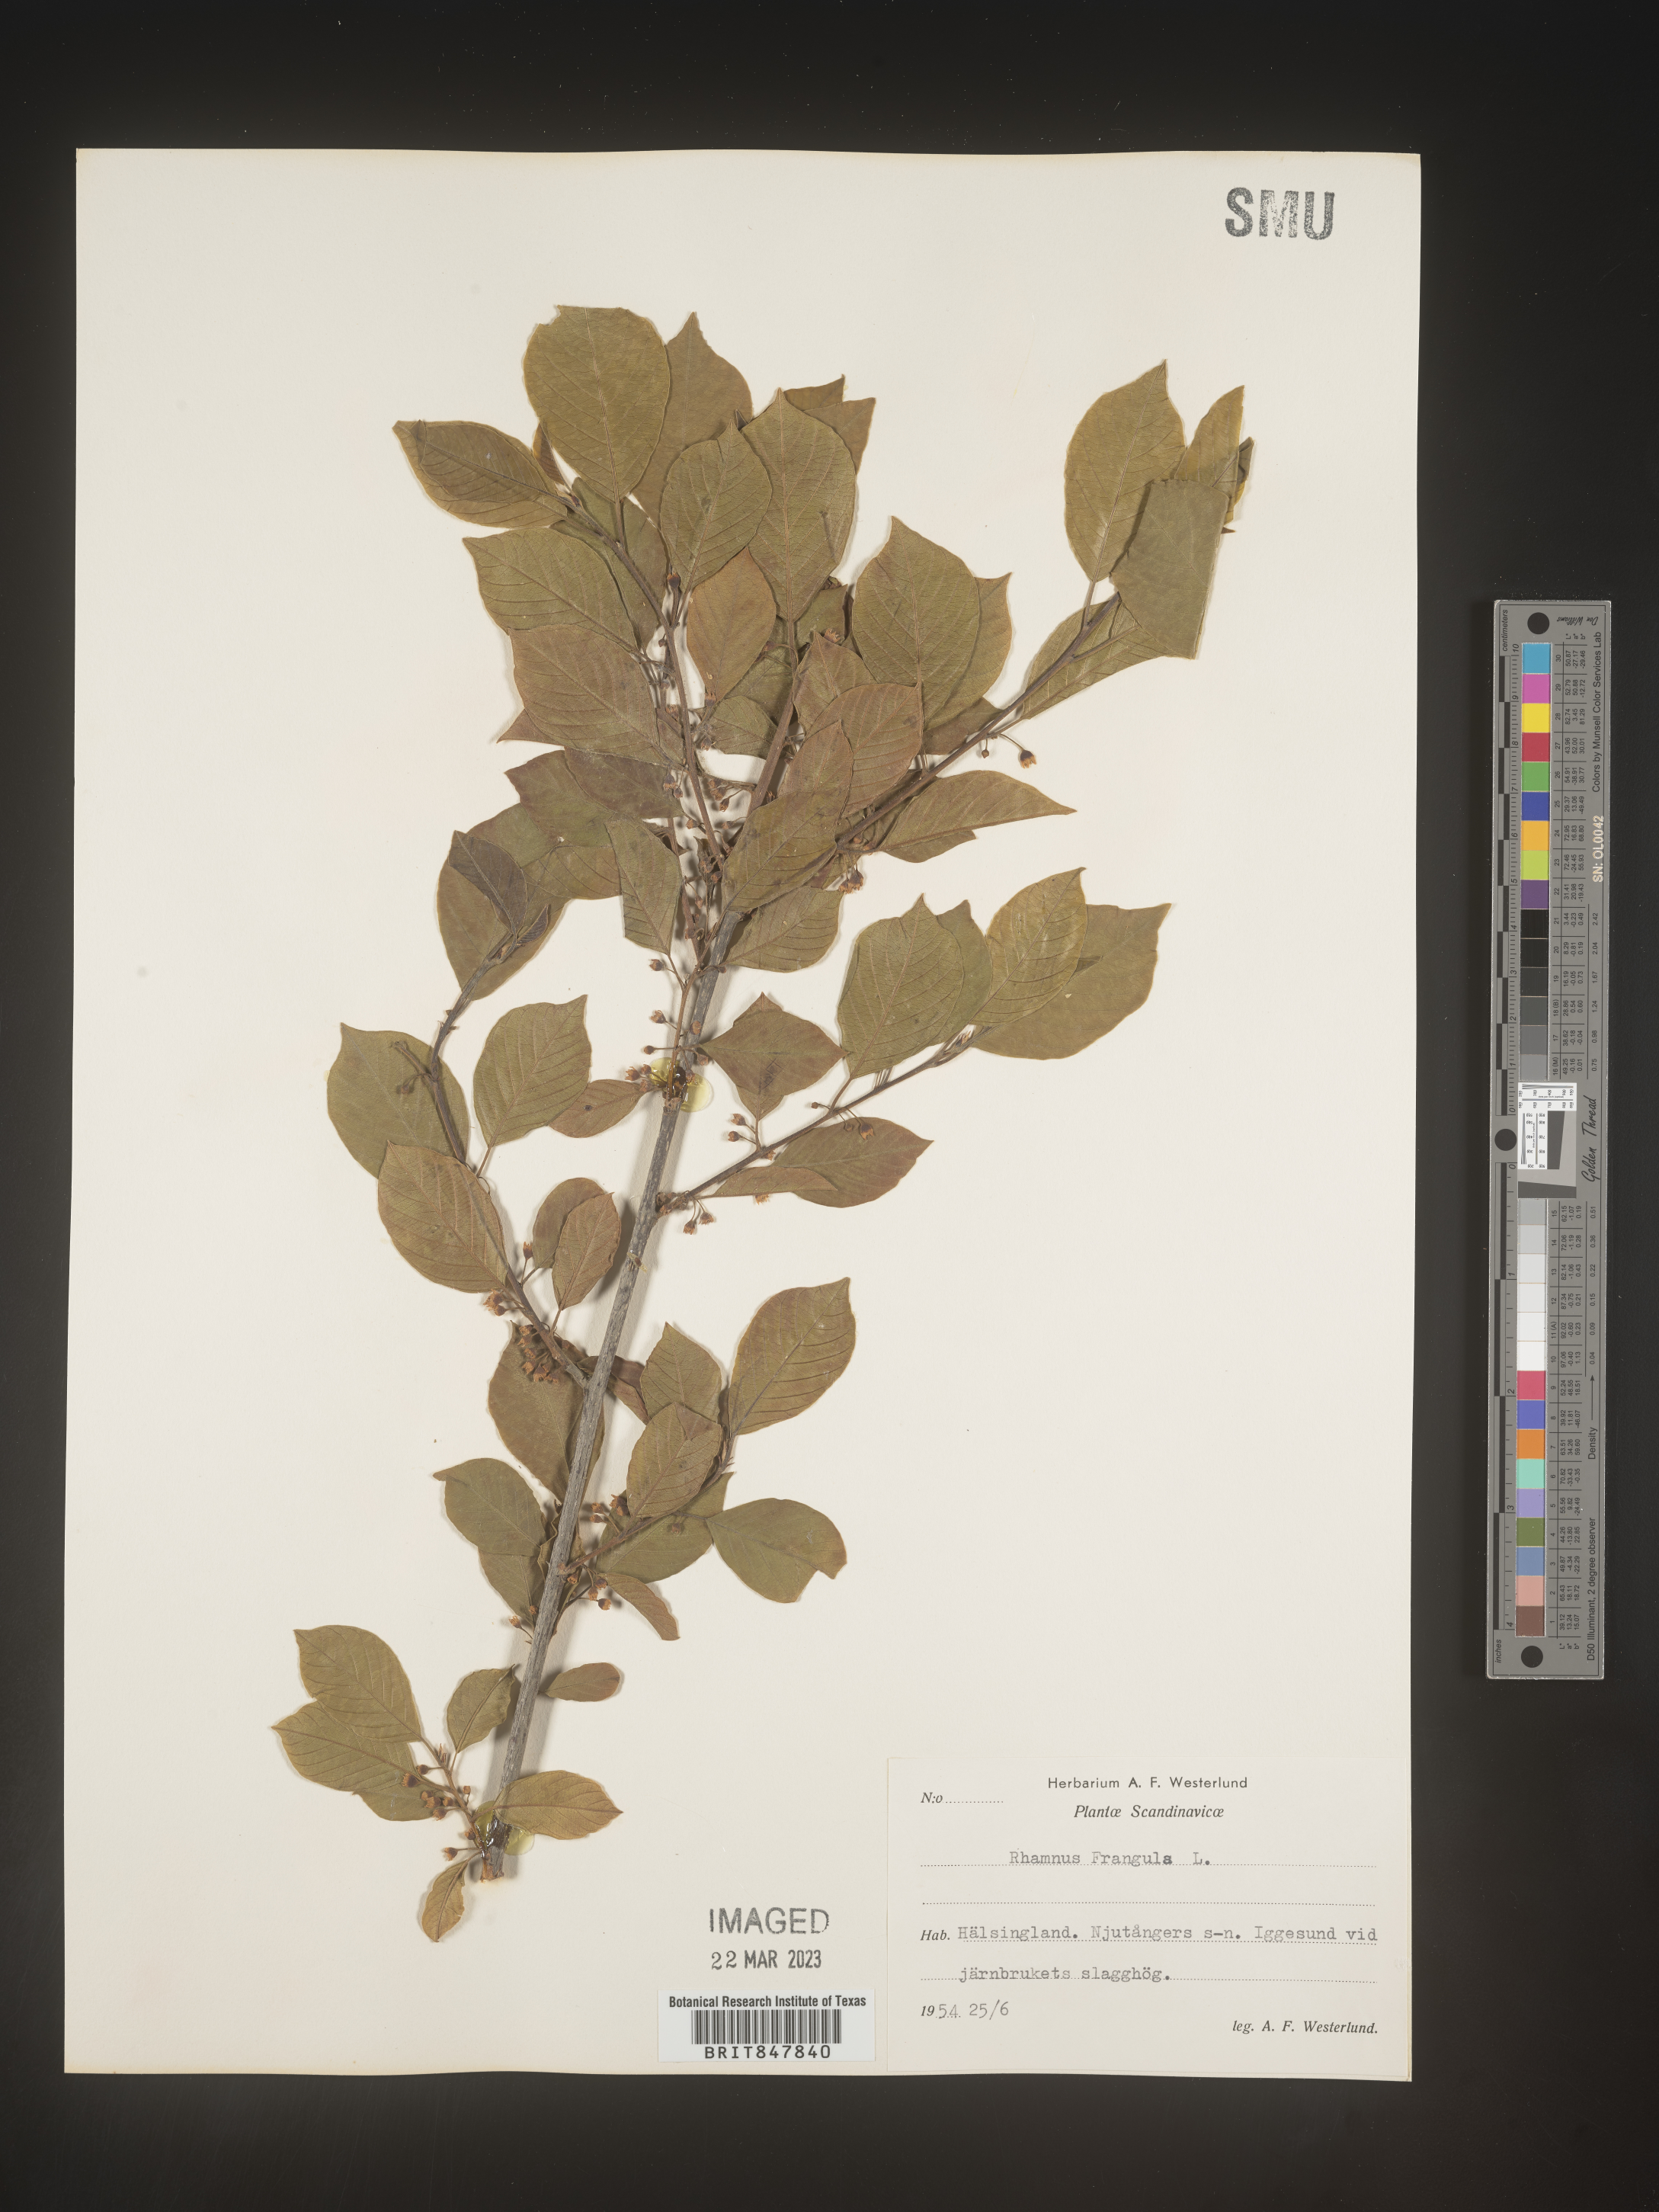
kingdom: Plantae
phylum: Tracheophyta
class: Magnoliopsida
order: Rosales
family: Rhamnaceae
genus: Rhamnus
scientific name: Rhamnus
